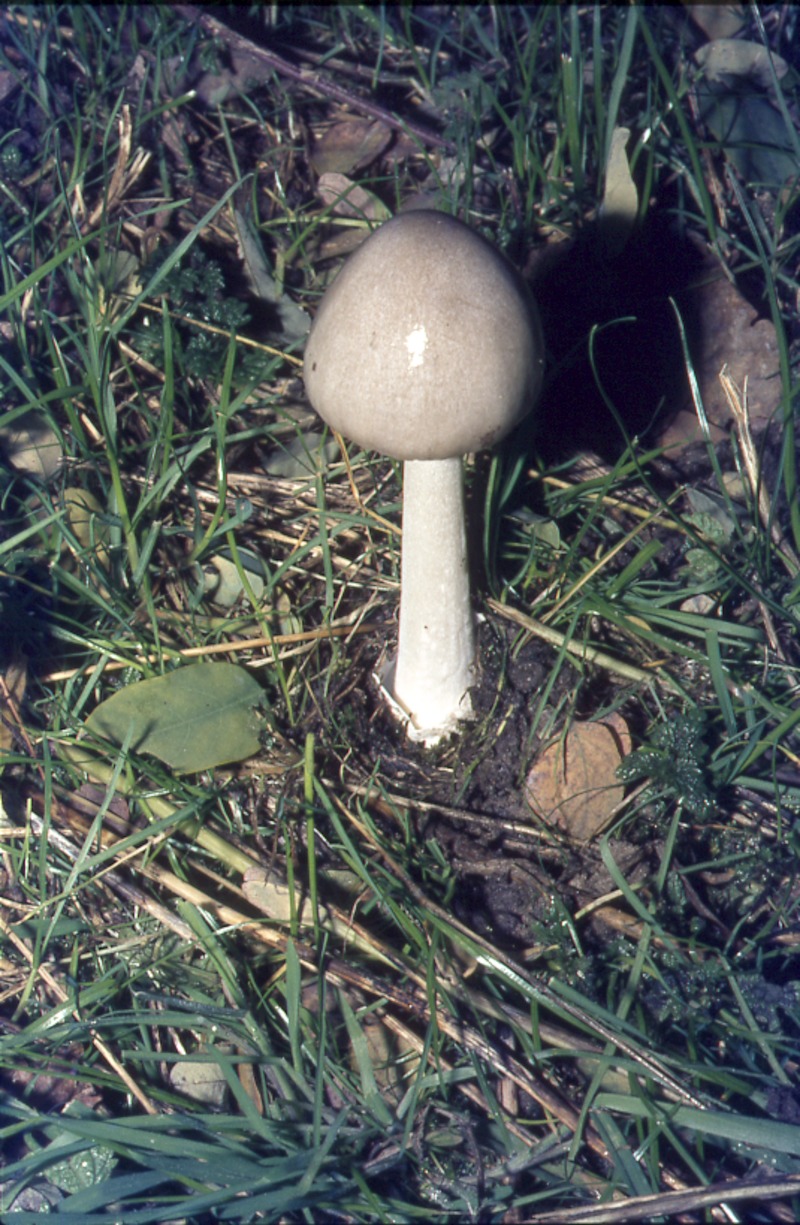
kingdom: Fungi
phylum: Basidiomycota
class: Agaricomycetes
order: Agaricales
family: Pluteaceae
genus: Volvopluteus
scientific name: Volvopluteus gloiocephalus
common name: Stubble rosegill
